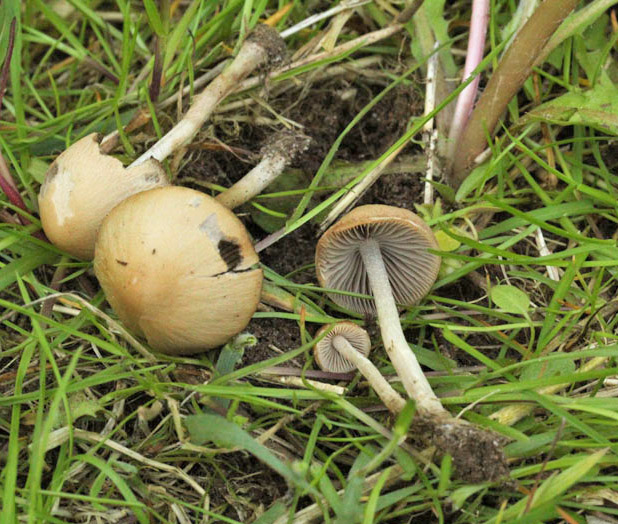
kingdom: Fungi
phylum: Basidiomycota
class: Agaricomycetes
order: Agaricales
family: Psathyrellaceae
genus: Psathyrella
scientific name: Psathyrella arenosa
